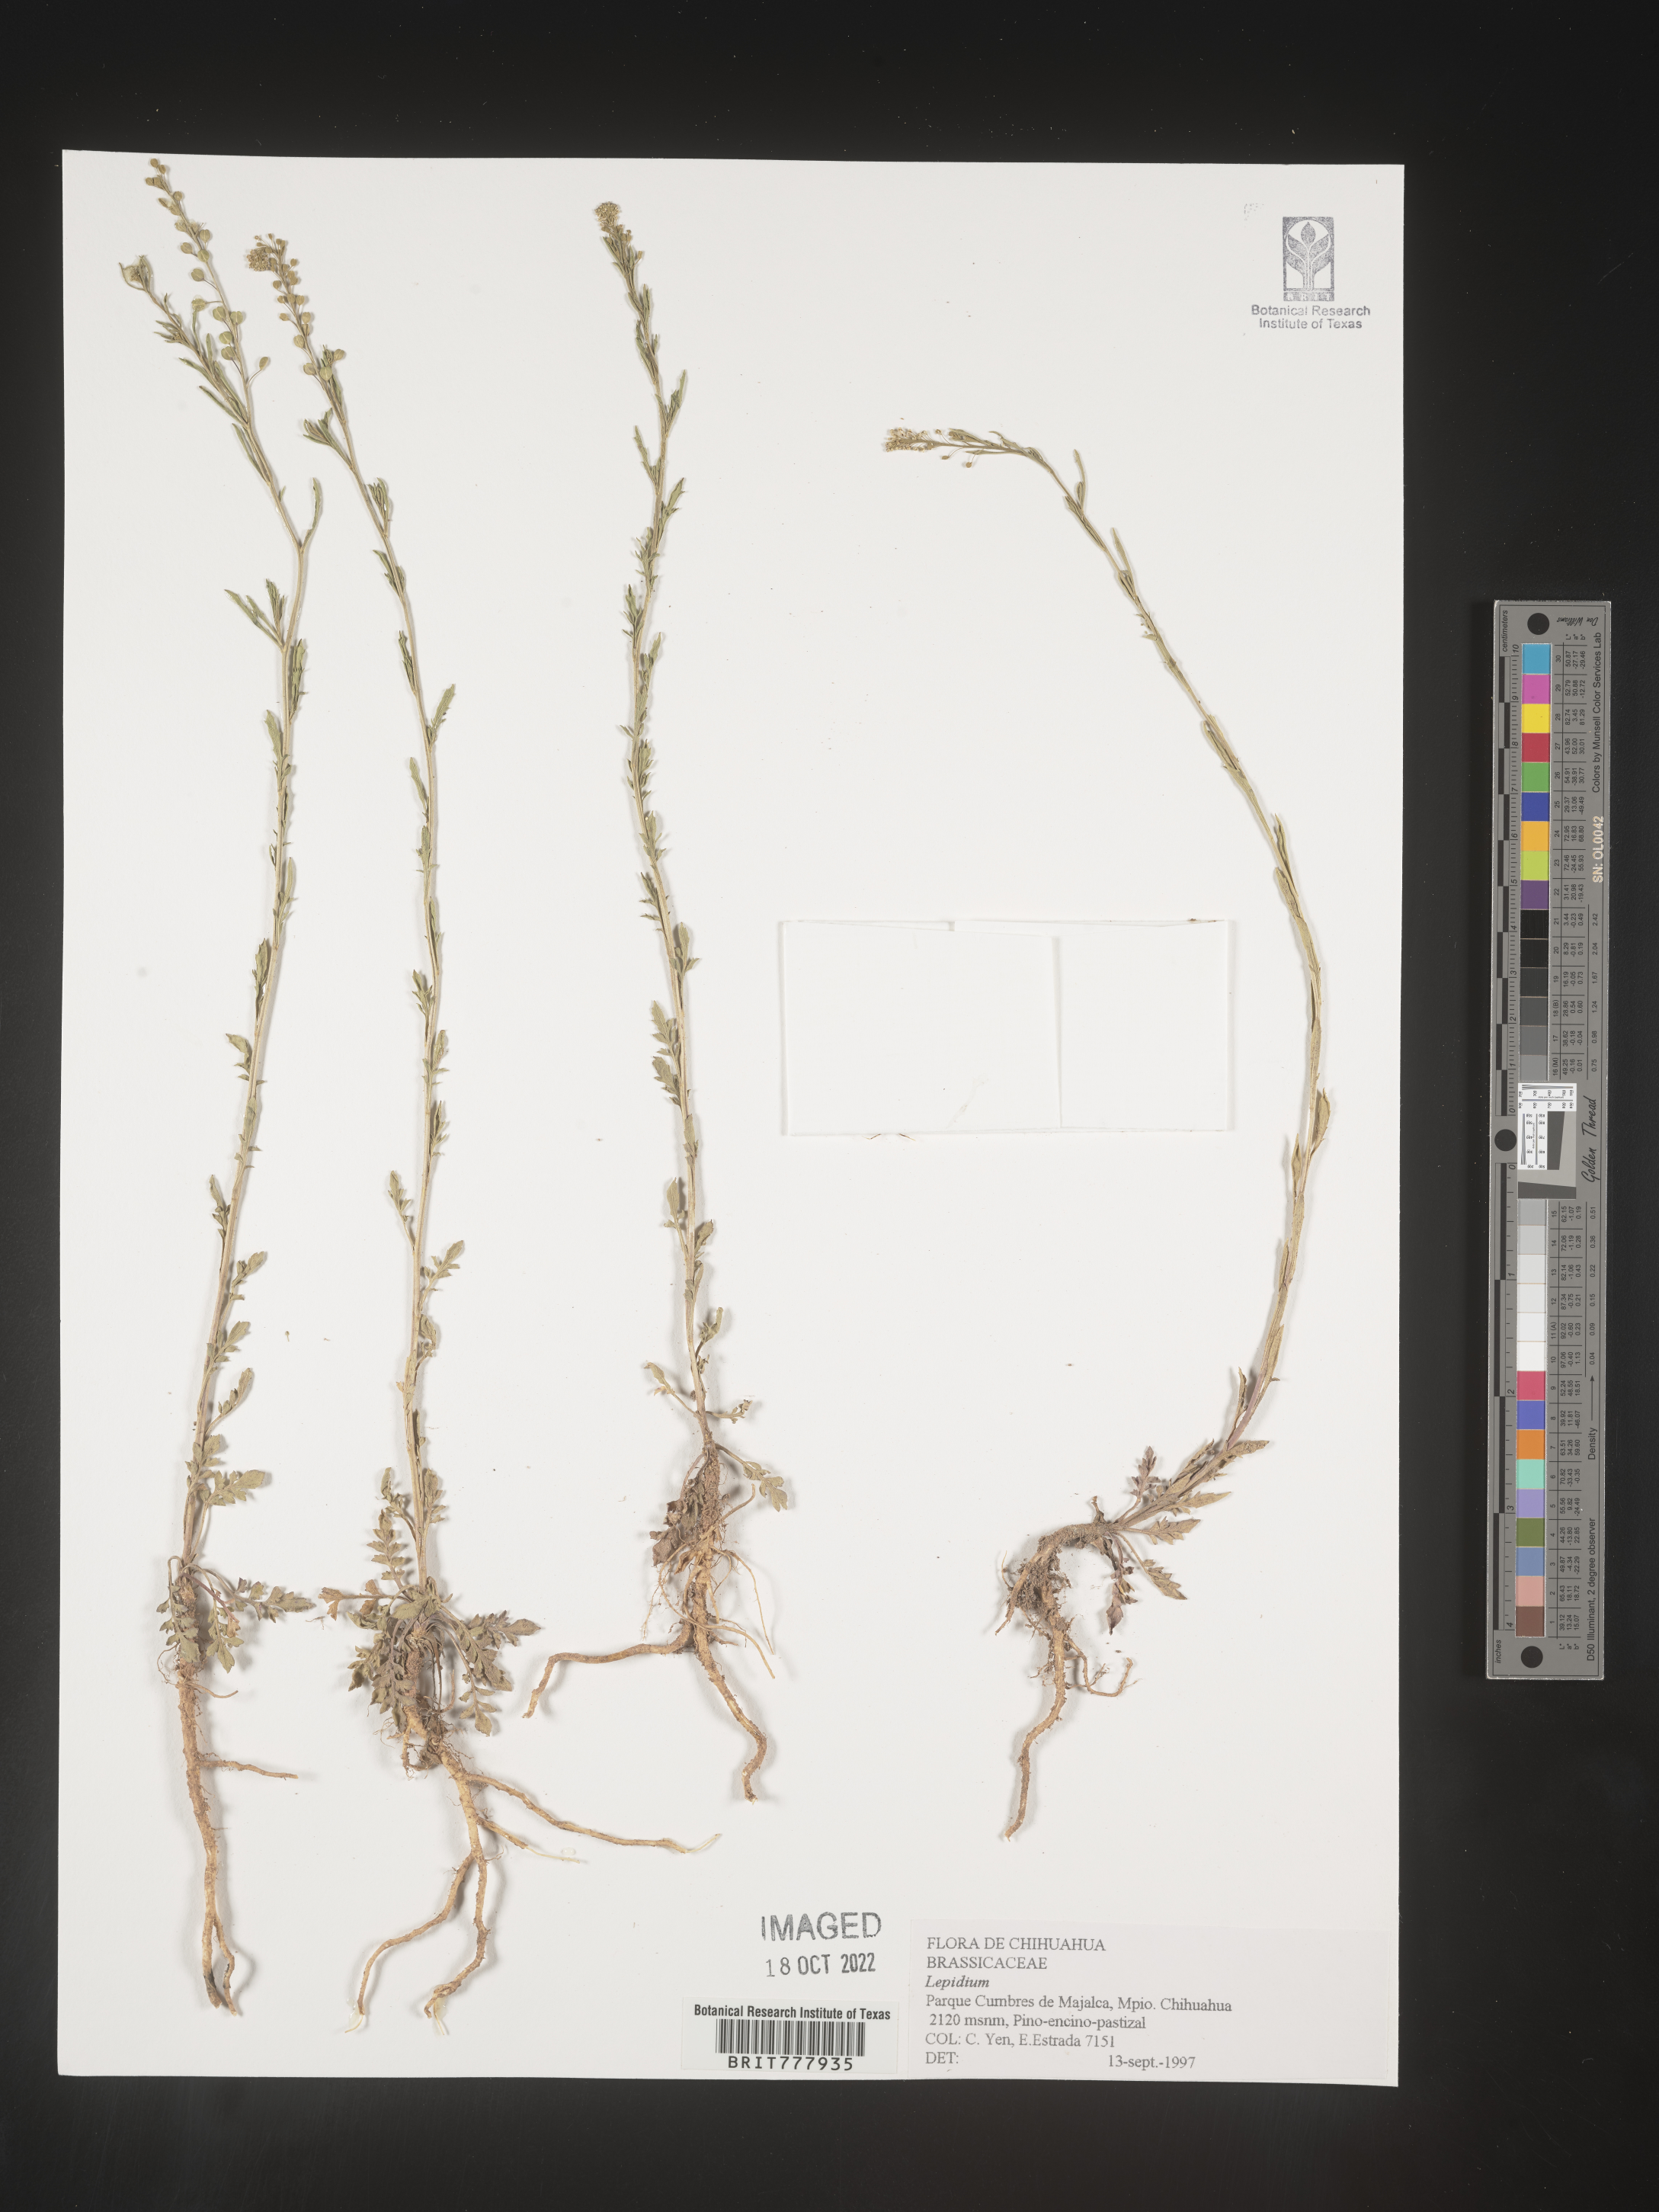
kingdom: Plantae
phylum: Tracheophyta
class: Magnoliopsida
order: Brassicales
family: Brassicaceae
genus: Lepidium
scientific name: Lepidium
